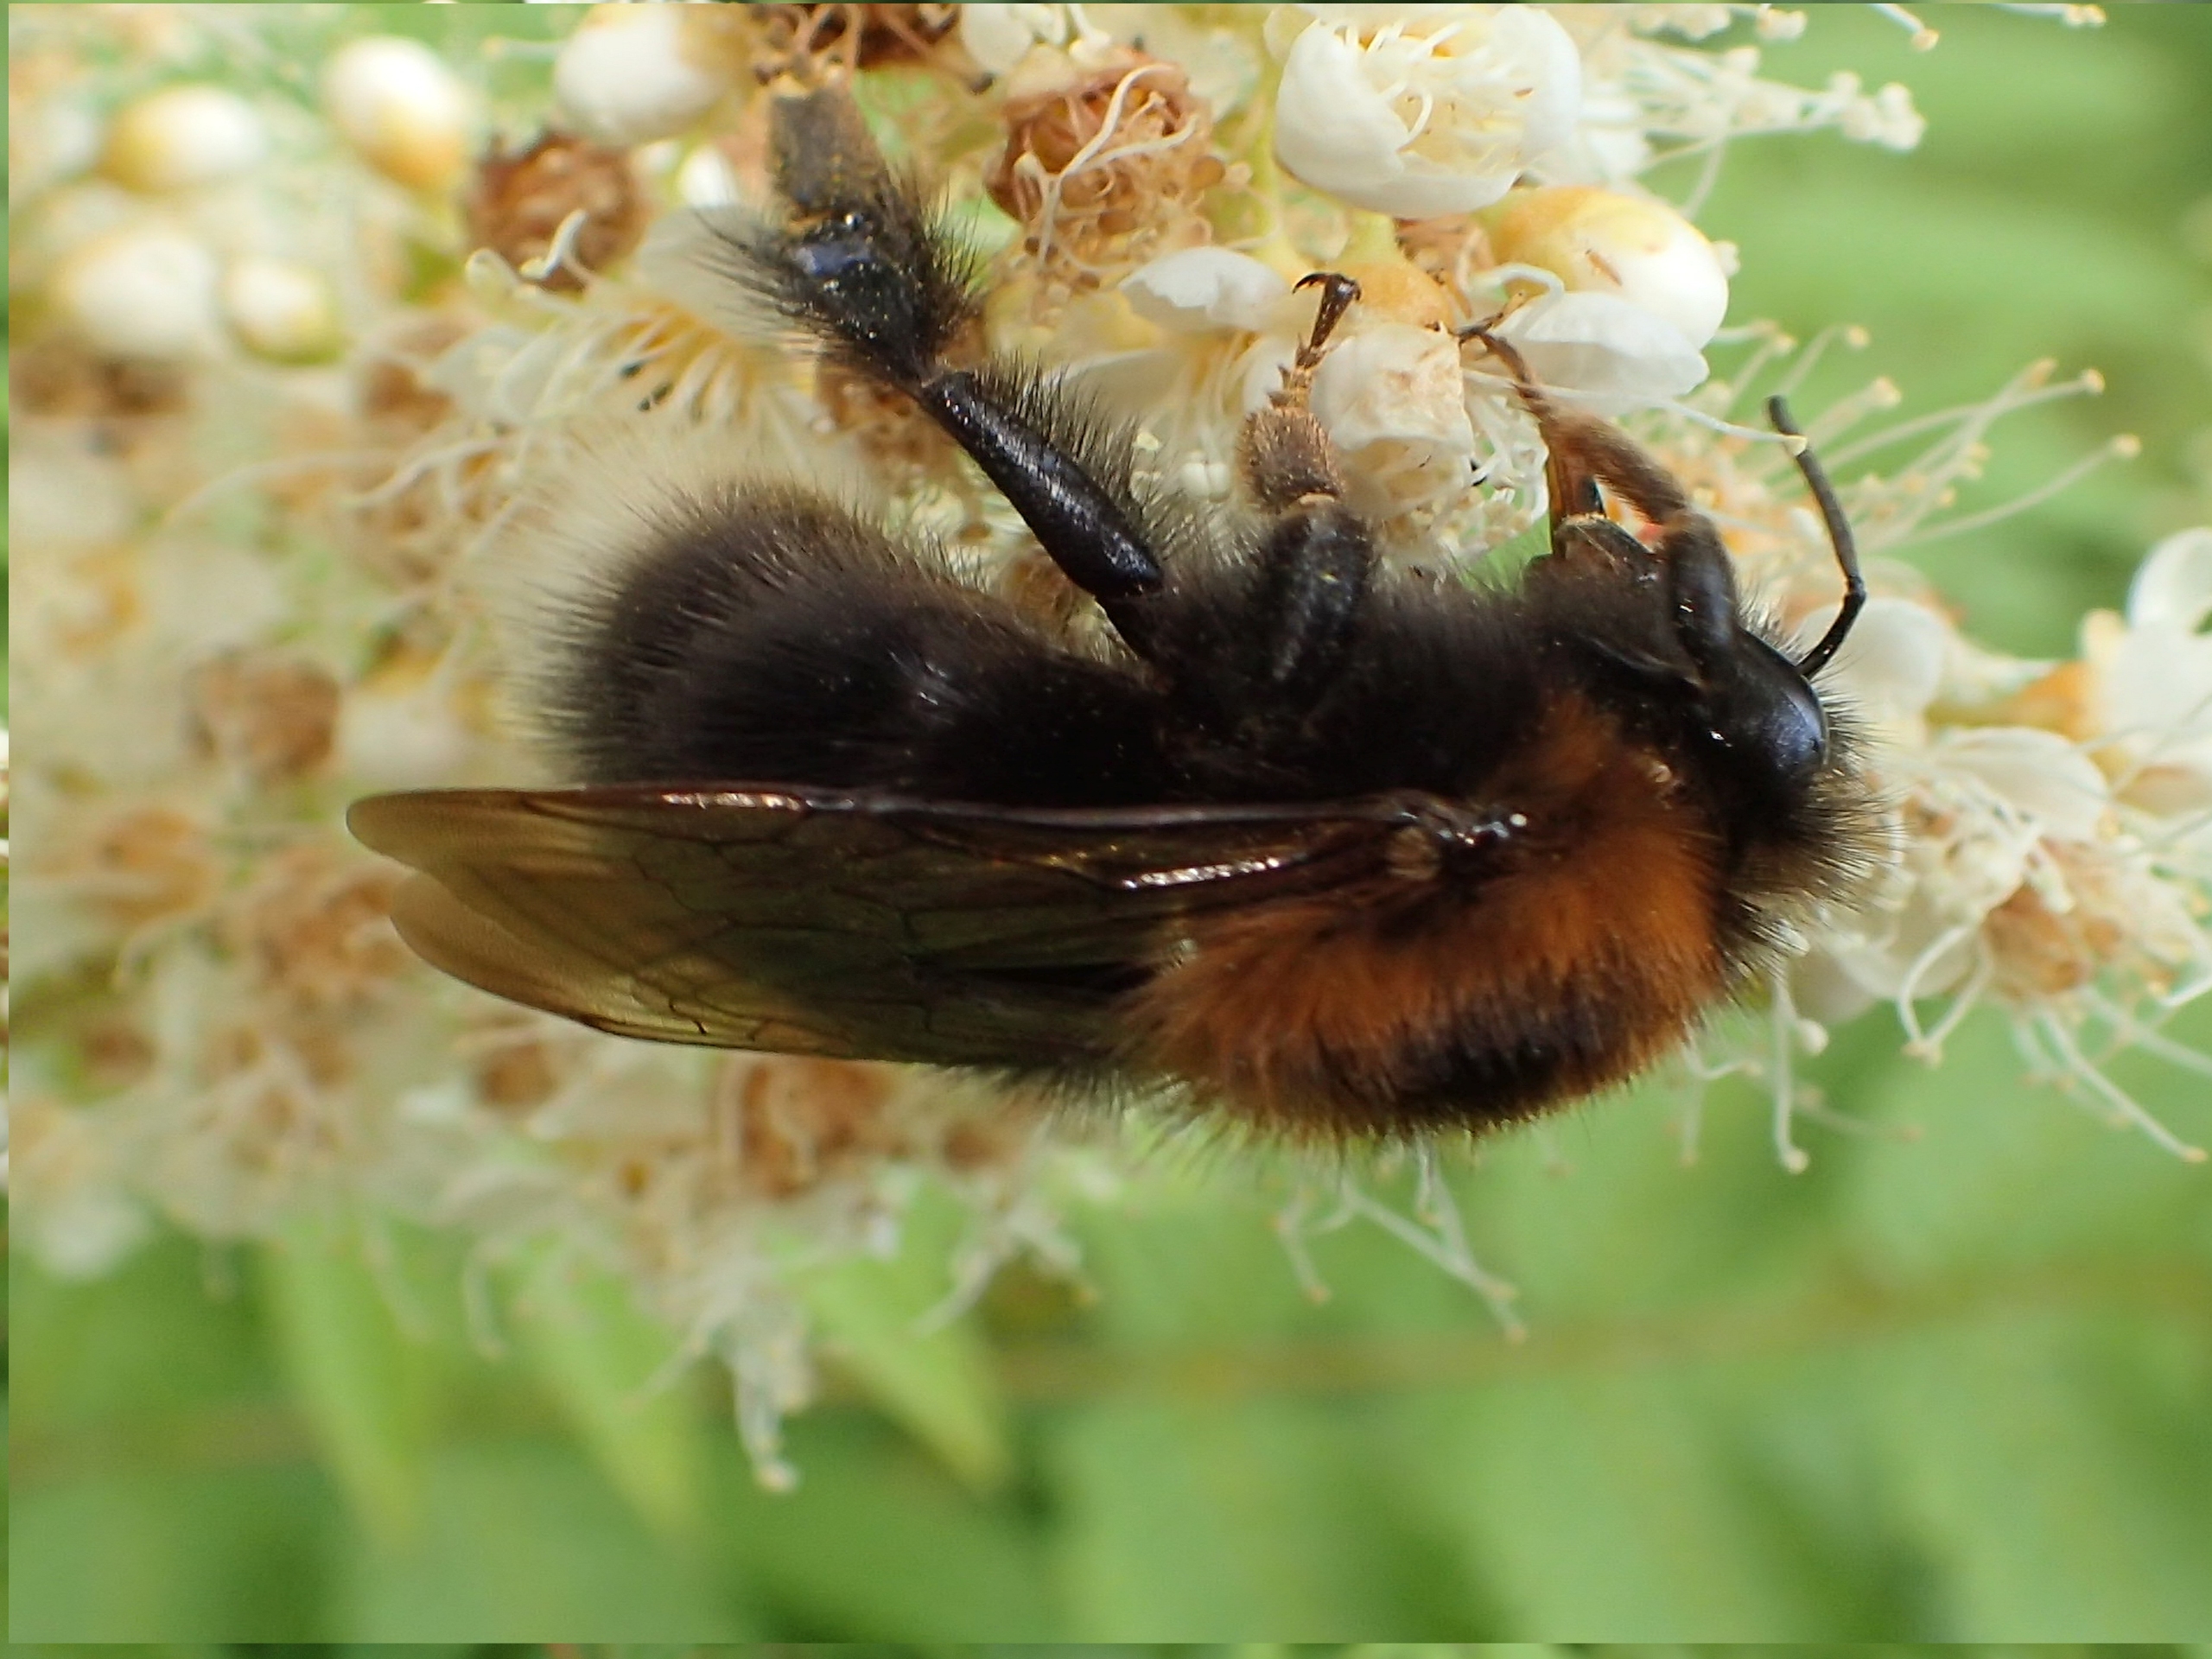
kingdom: Animalia
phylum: Arthropoda
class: Insecta
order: Hymenoptera
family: Apidae
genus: Bombus
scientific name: Bombus hypnorum
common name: Hushumle
